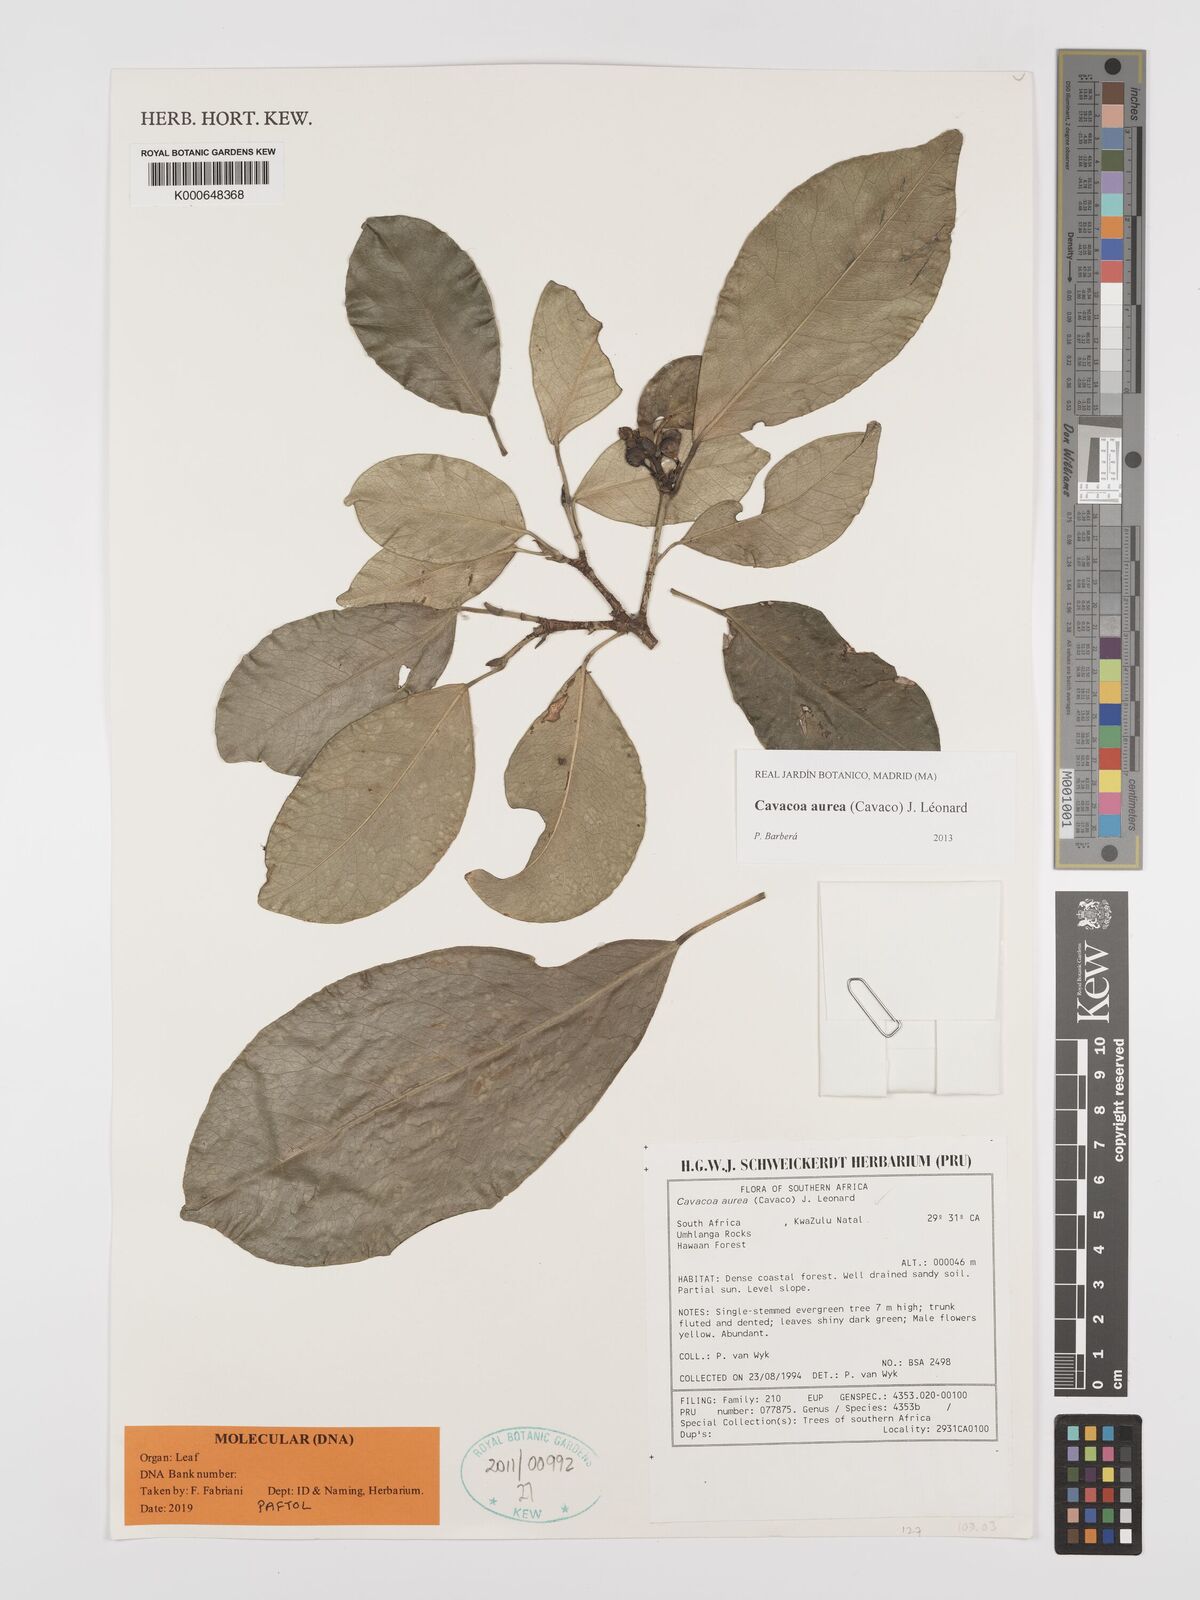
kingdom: Plantae
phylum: Tracheophyta
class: Magnoliopsida
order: Malpighiales
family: Euphorbiaceae
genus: Cavacoa
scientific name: Cavacoa aurea
